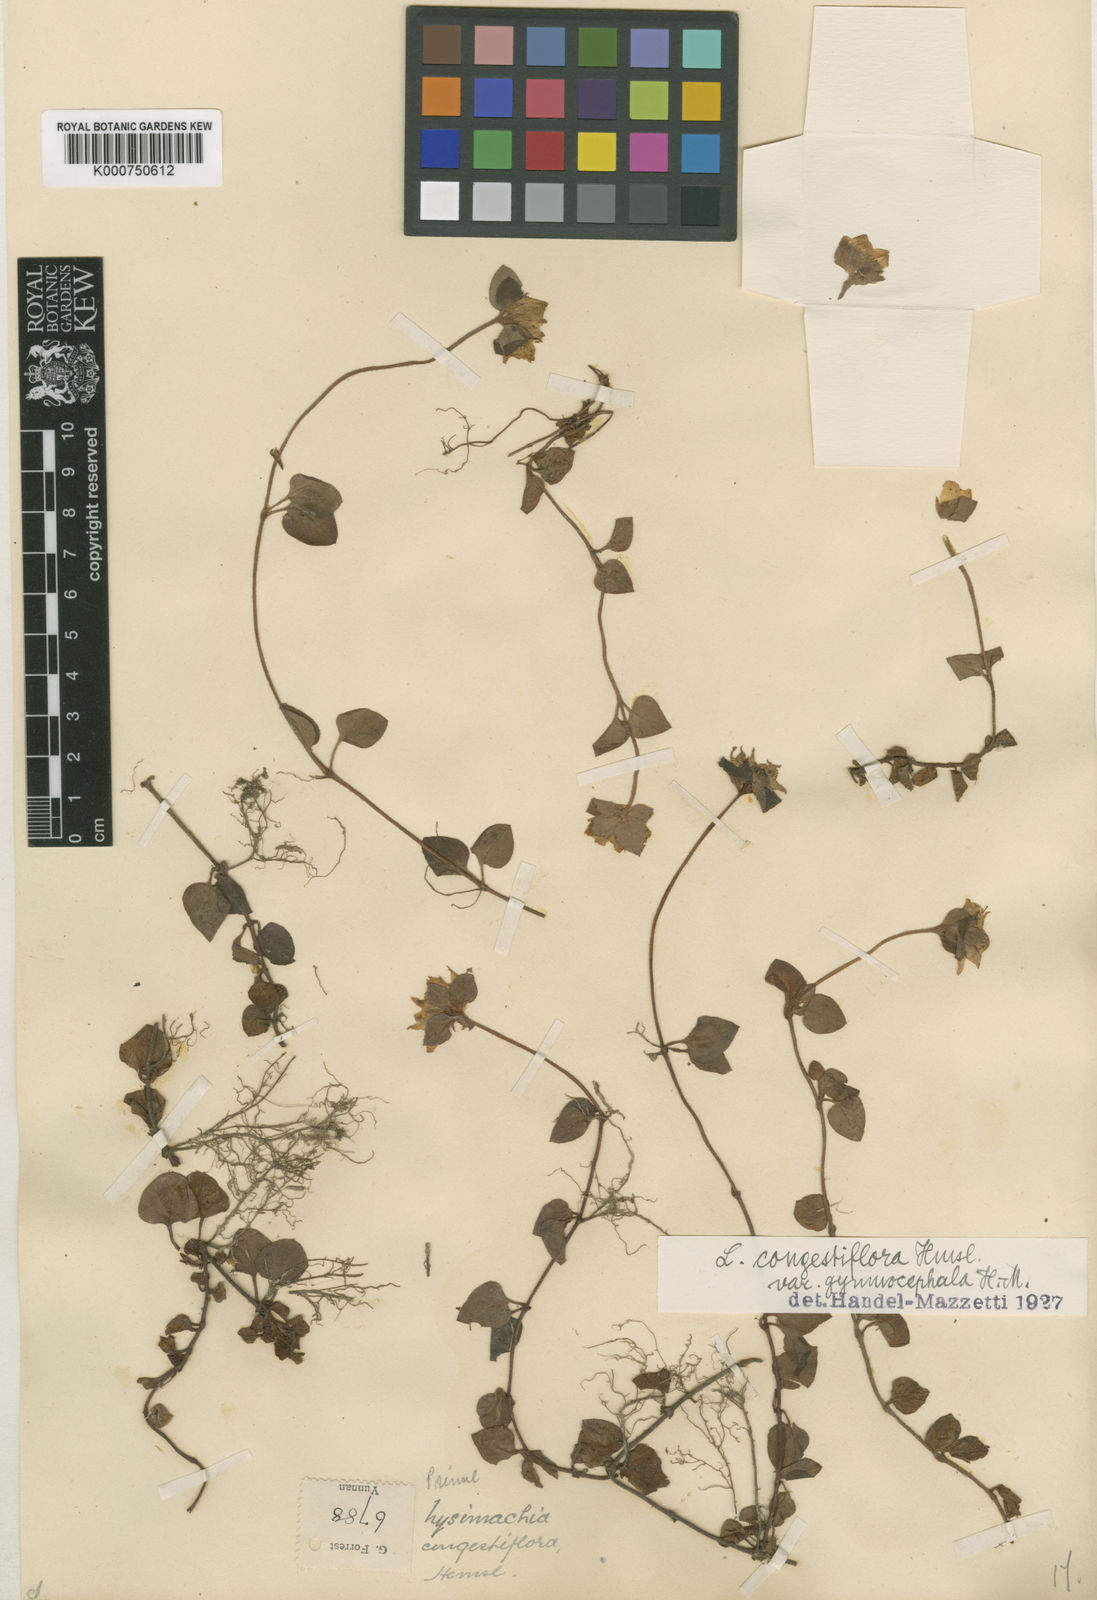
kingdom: Plantae
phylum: Tracheophyta
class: Magnoliopsida
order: Ericales
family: Primulaceae
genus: Lysimachia
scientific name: Lysimachia congestiflora
